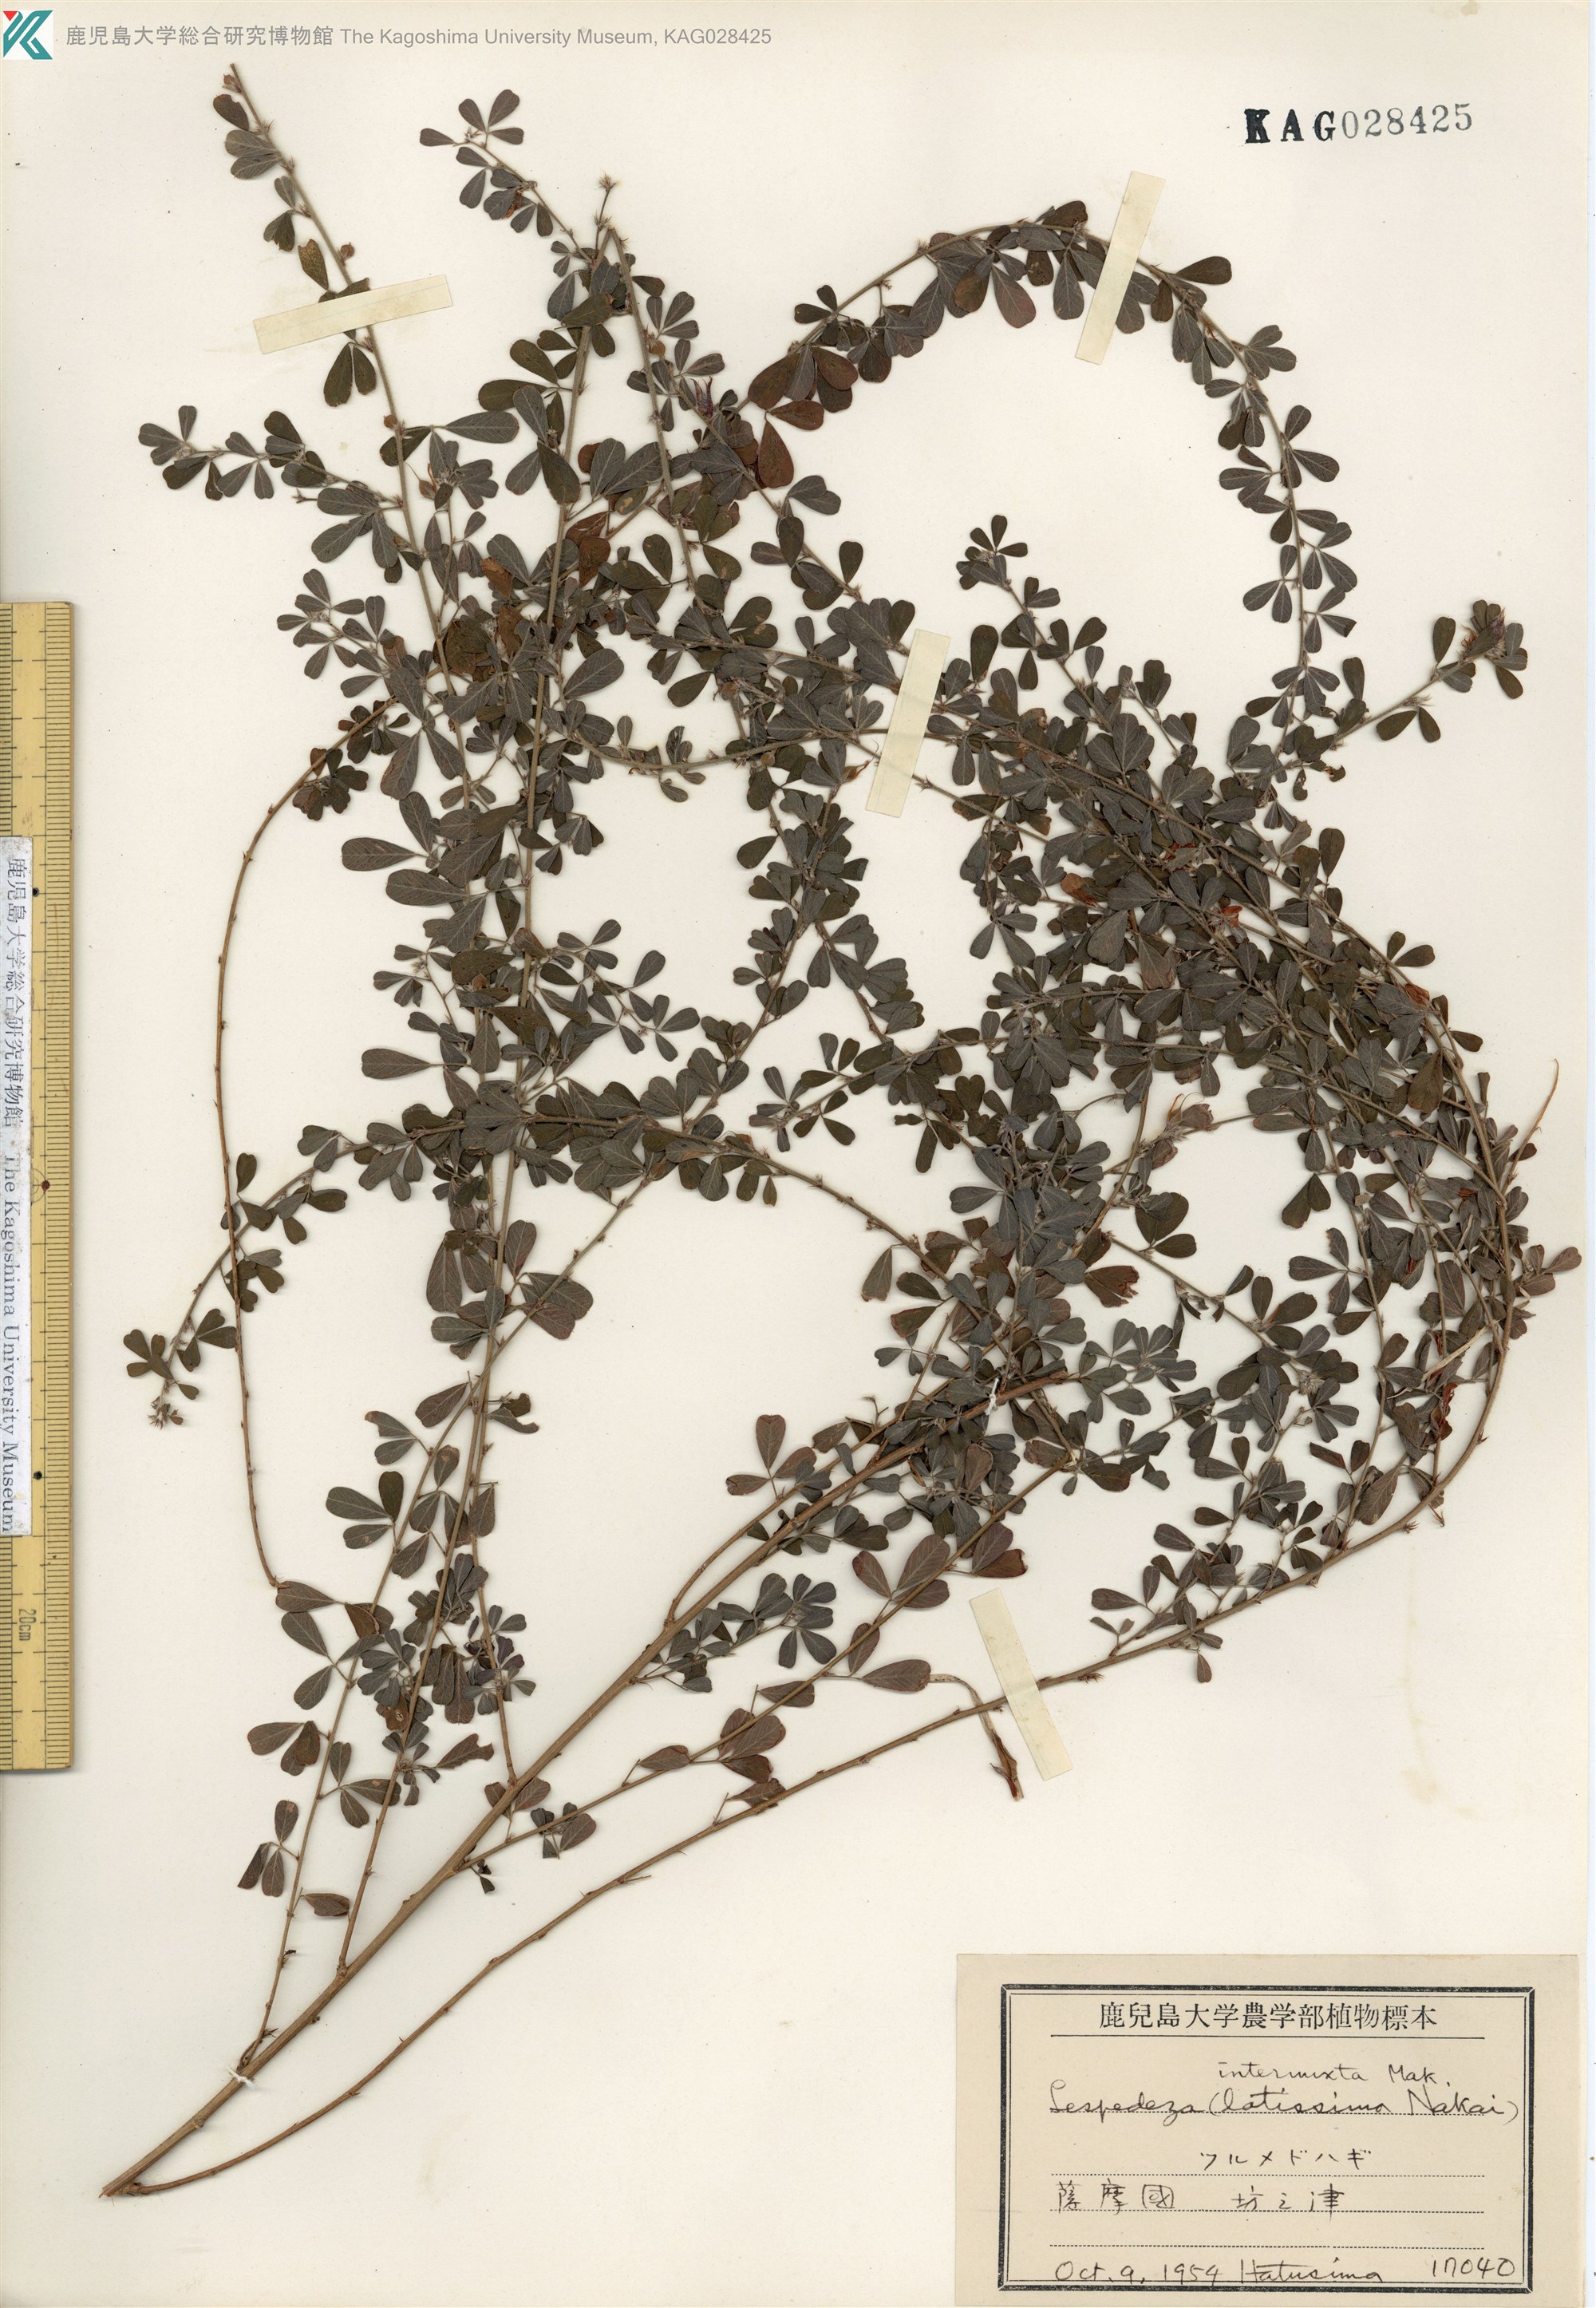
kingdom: Plantae
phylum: Tracheophyta
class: Magnoliopsida
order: Fabales
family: Fabaceae
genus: Lespedeza
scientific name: Lespedeza intermixta
